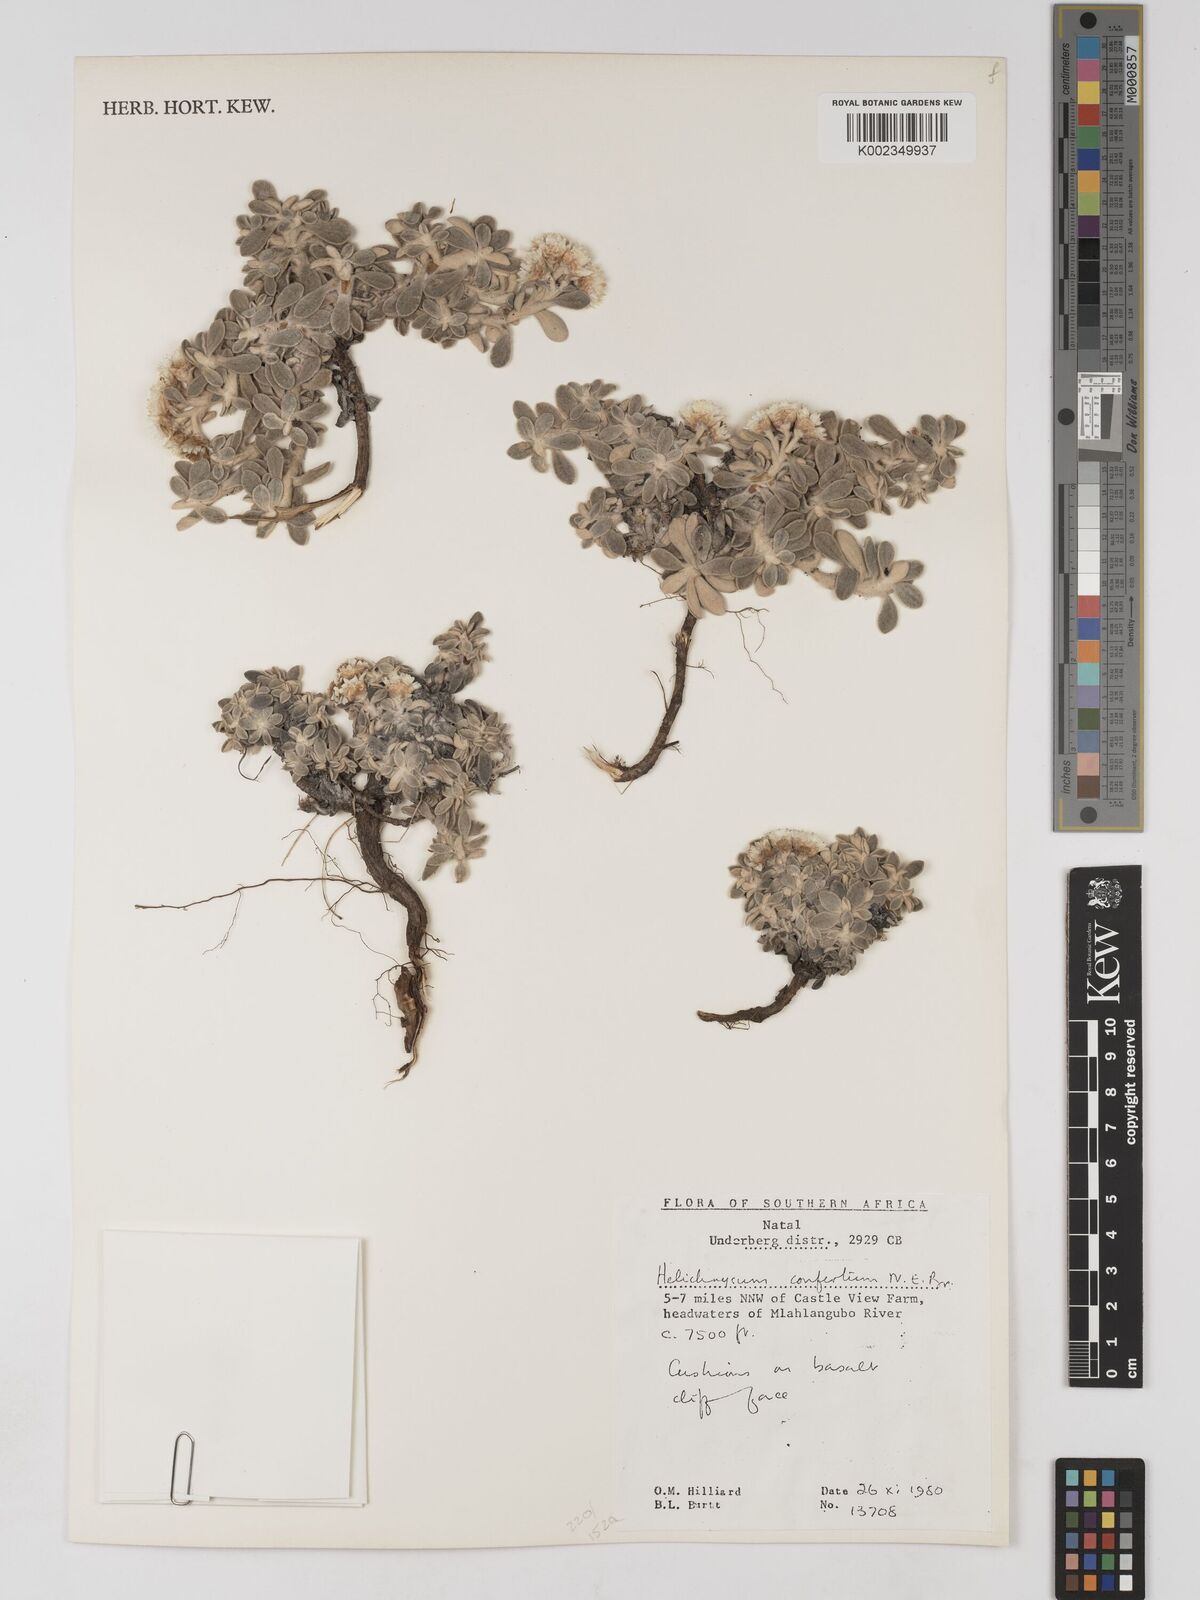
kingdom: Plantae
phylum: Tracheophyta
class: Magnoliopsida
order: Asterales
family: Asteraceae
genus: Helichrysum
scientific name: Helichrysum confertum
